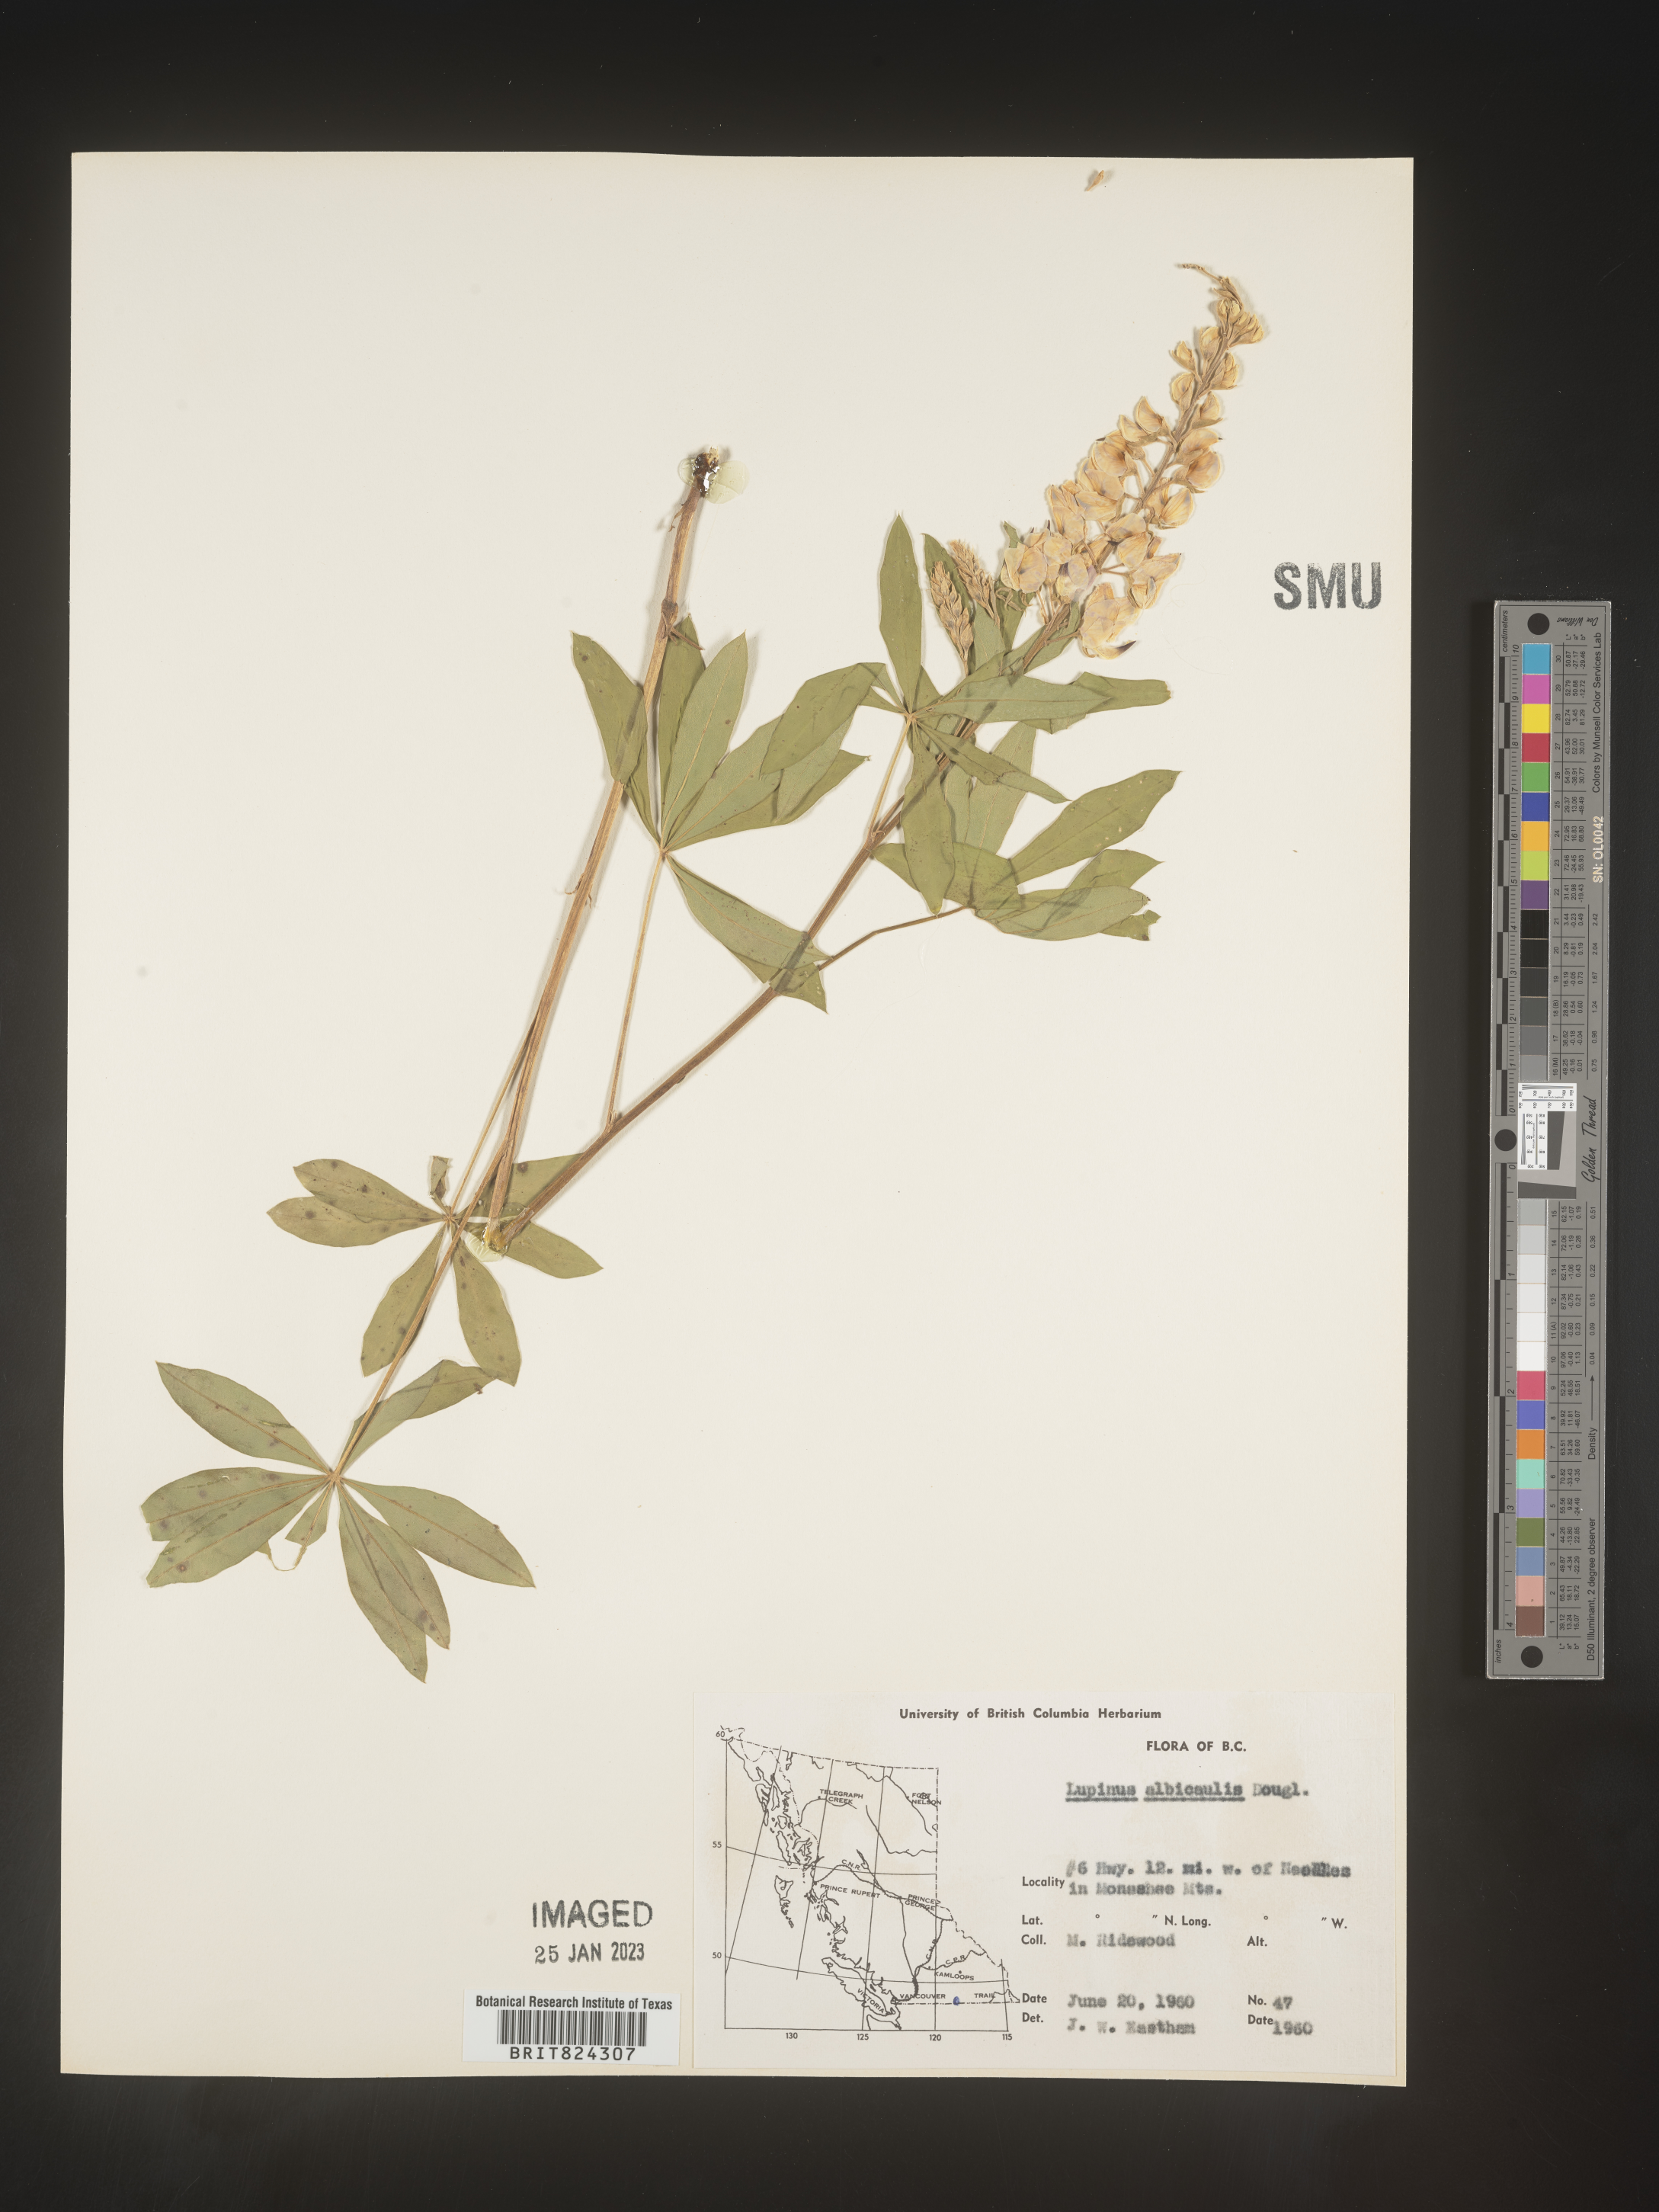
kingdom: Plantae
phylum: Tracheophyta
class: Magnoliopsida
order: Fabales
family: Fabaceae
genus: Lupinus
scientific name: Lupinus albicaulis
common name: Pine lupine
